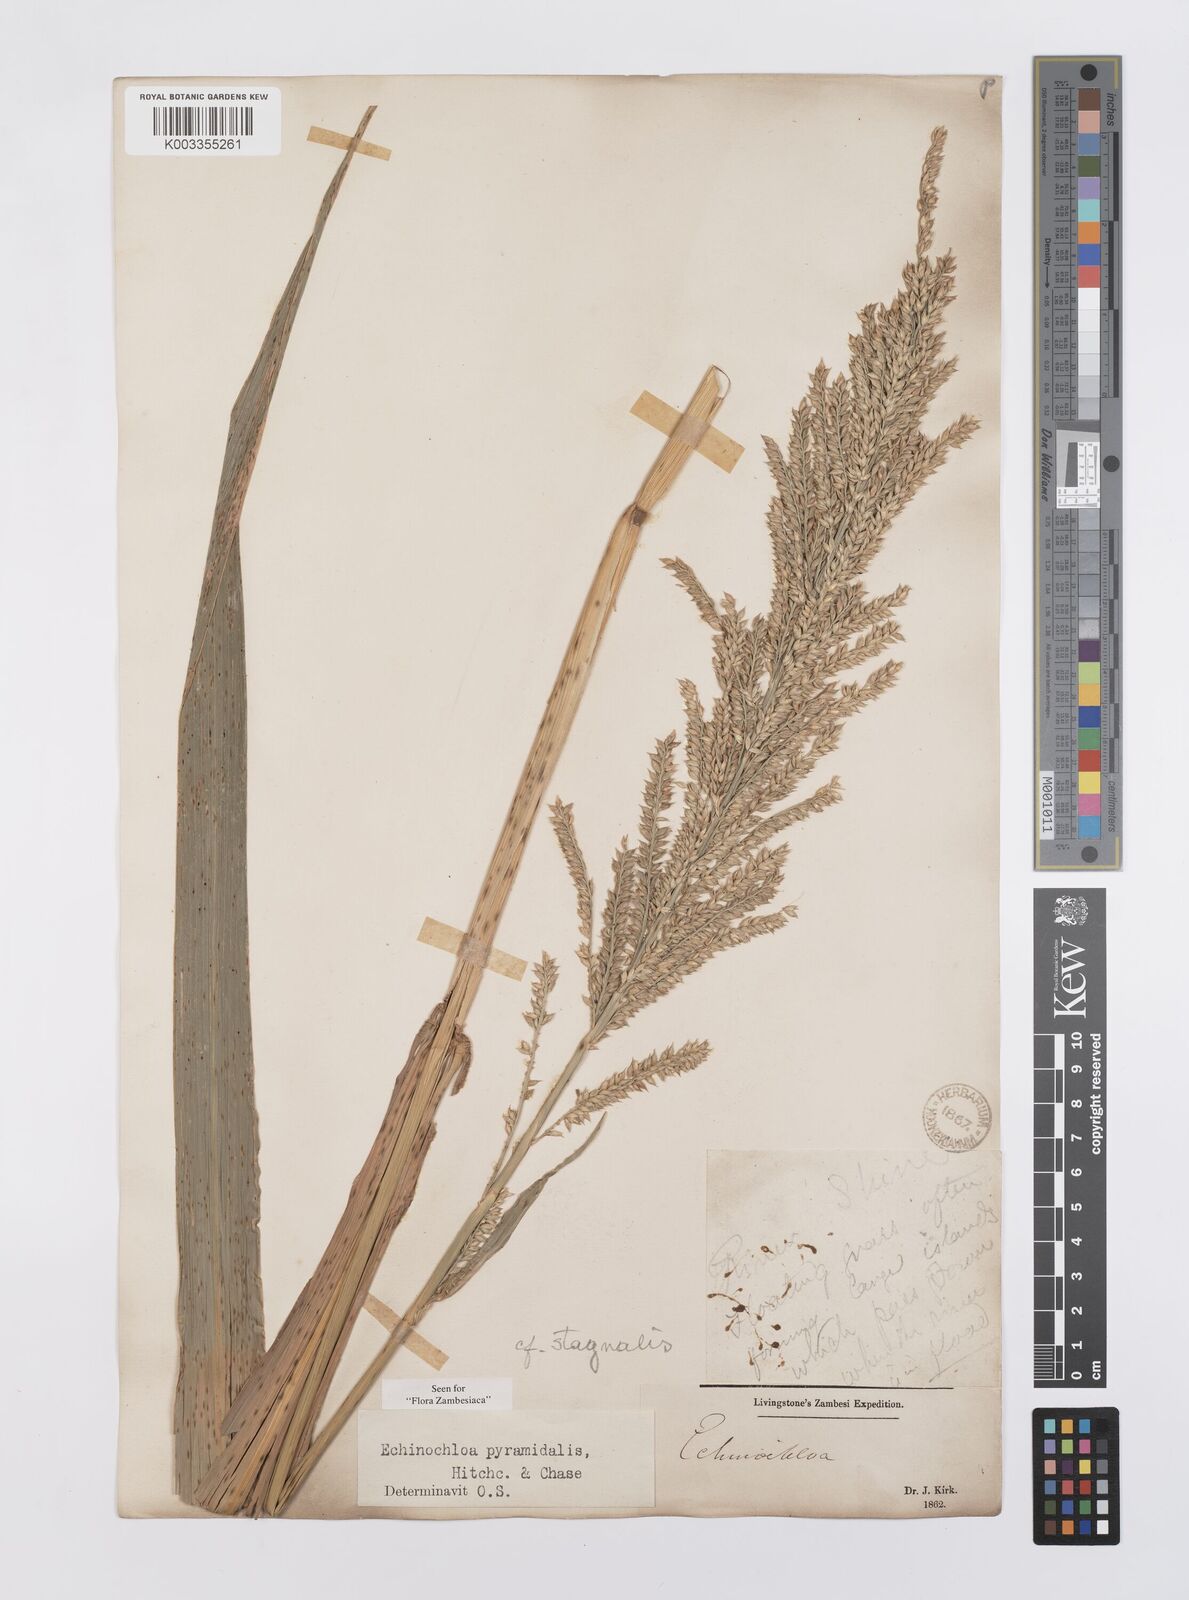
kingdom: Plantae
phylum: Tracheophyta
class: Liliopsida
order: Poales
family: Poaceae
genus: Echinochloa
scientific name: Echinochloa pyramidalis
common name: Antelope grass
